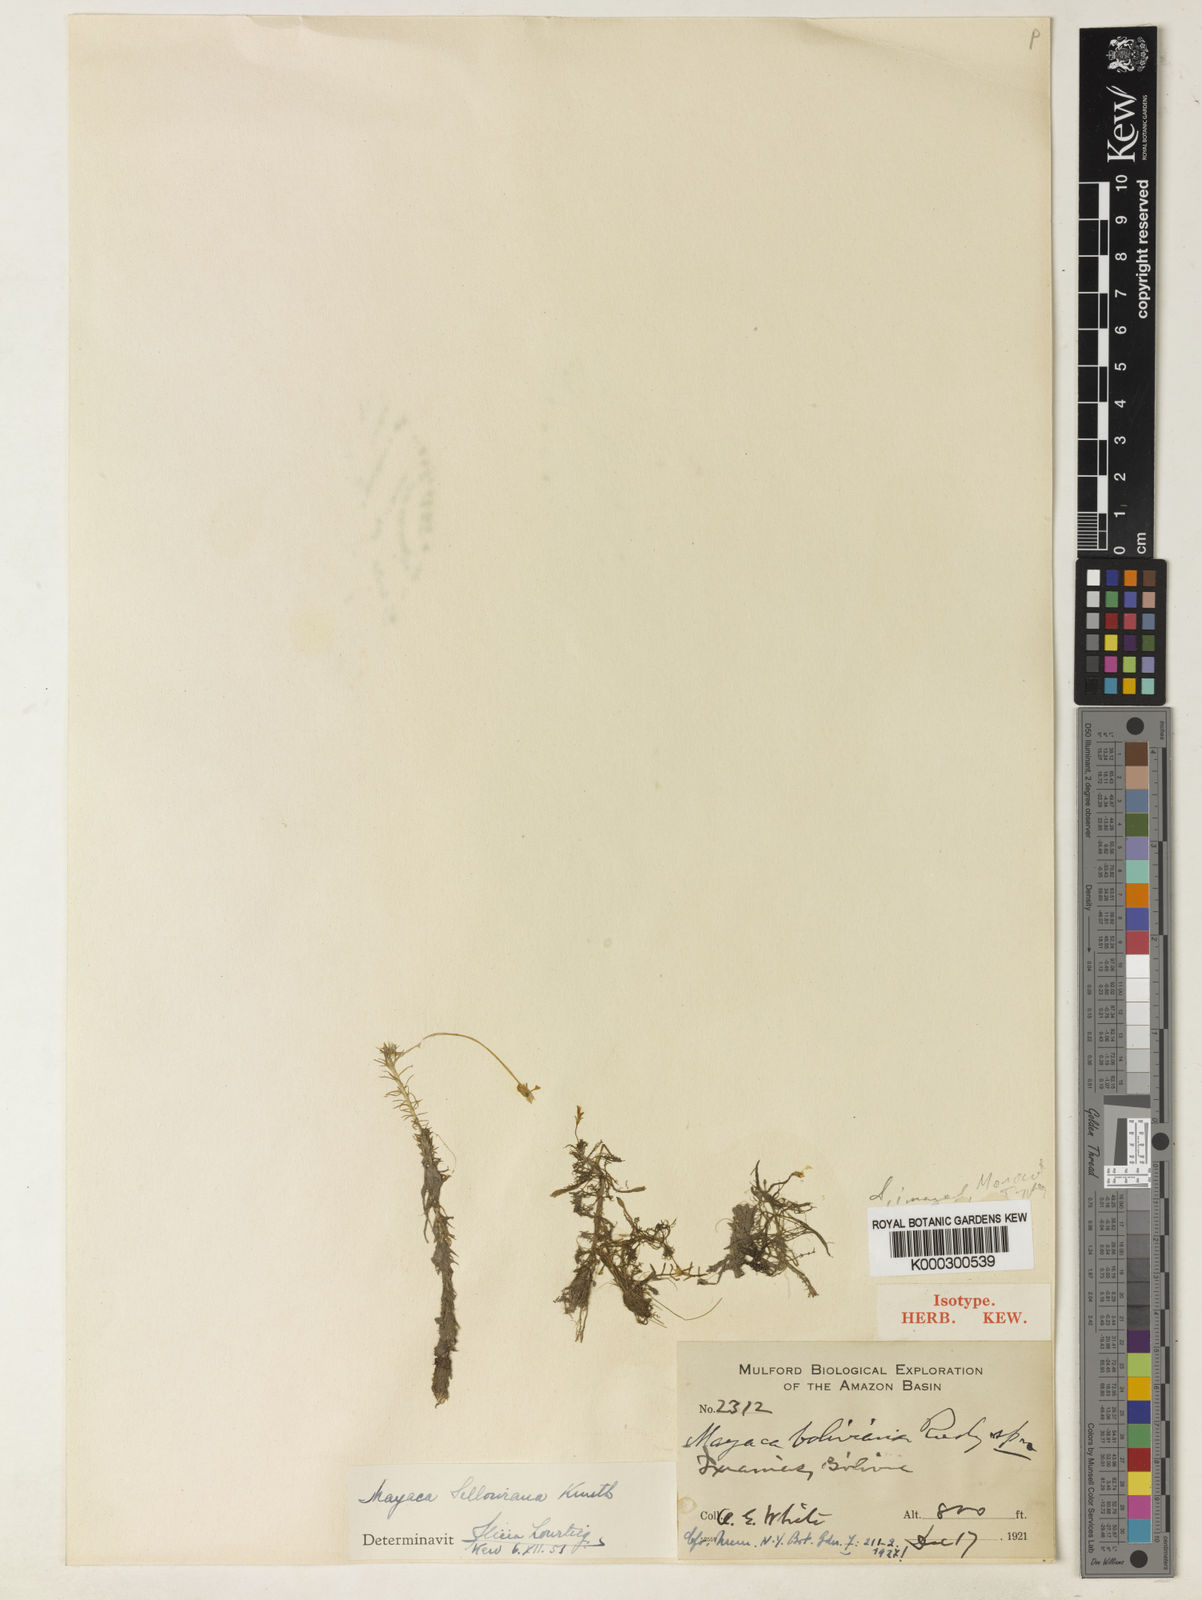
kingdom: Plantae
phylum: Tracheophyta
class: Liliopsida
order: Poales
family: Mayacaceae
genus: Mayaca
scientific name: Mayaca sellowiana
